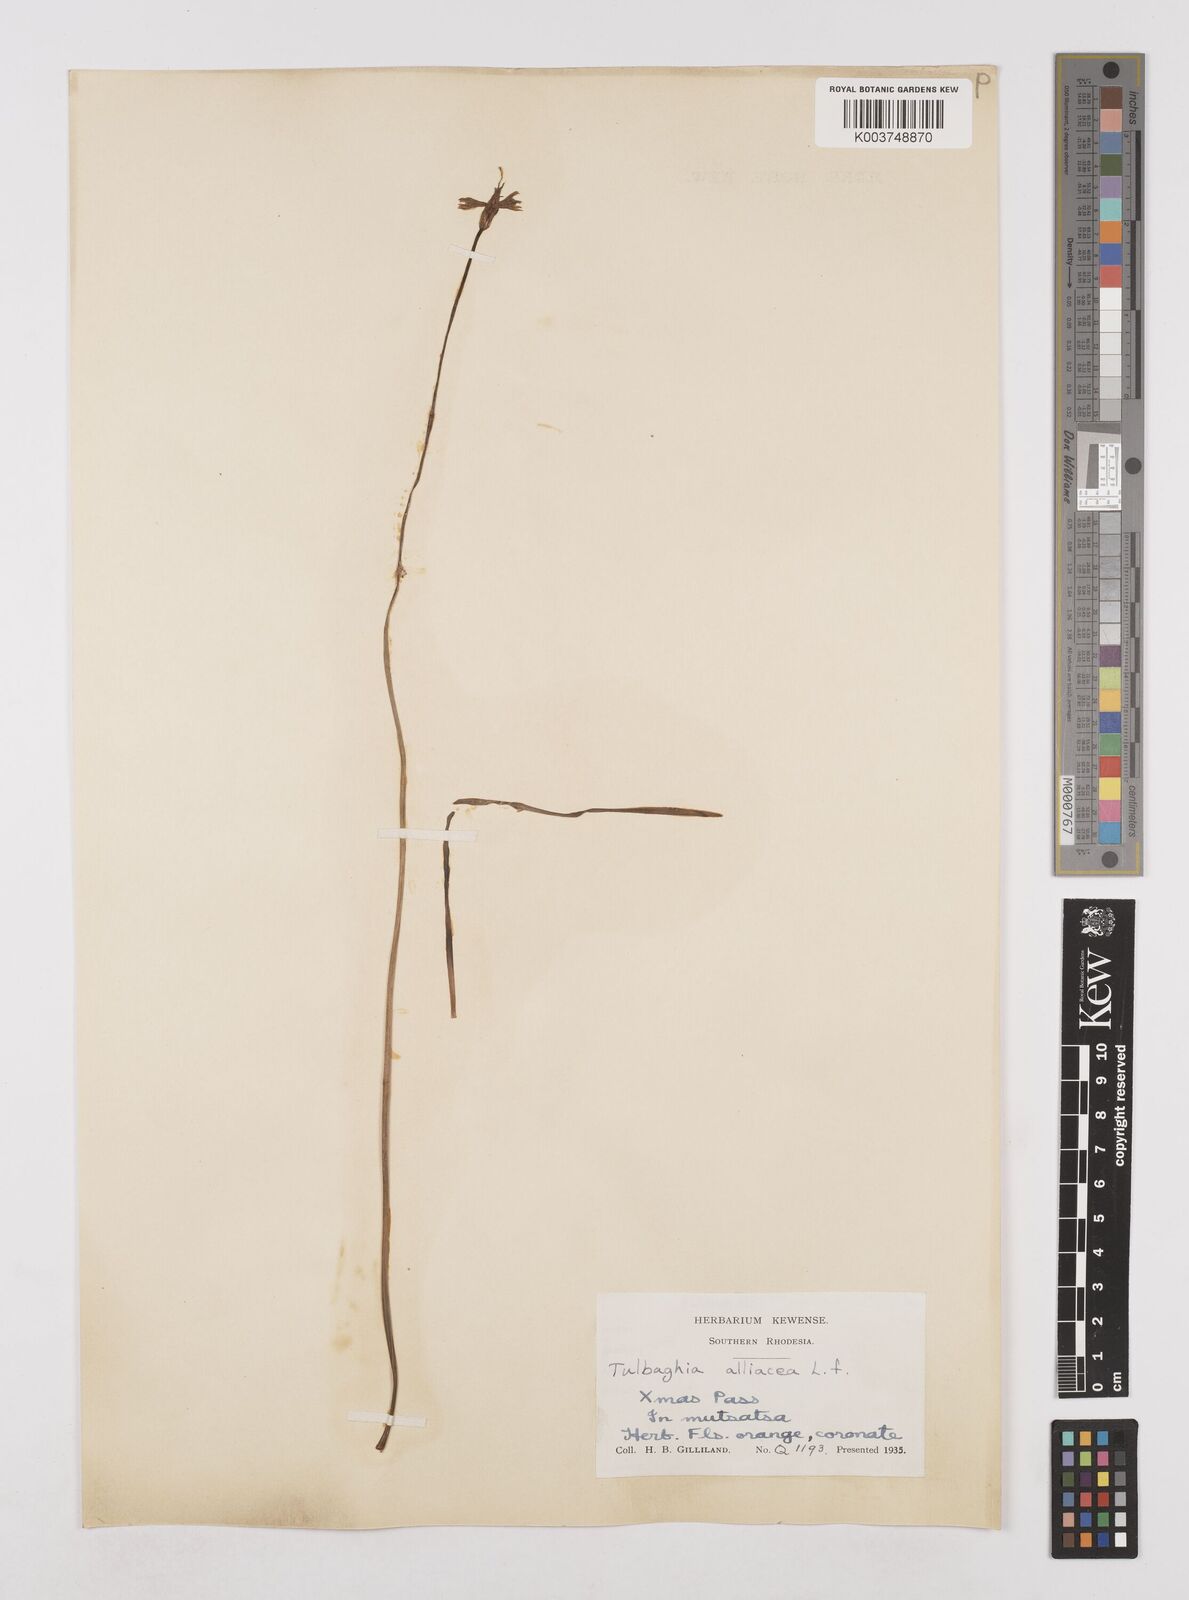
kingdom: Plantae
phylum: Tracheophyta
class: Liliopsida
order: Asparagales
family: Amaryllidaceae
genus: Tulbaghia
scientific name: Tulbaghia alliacea
